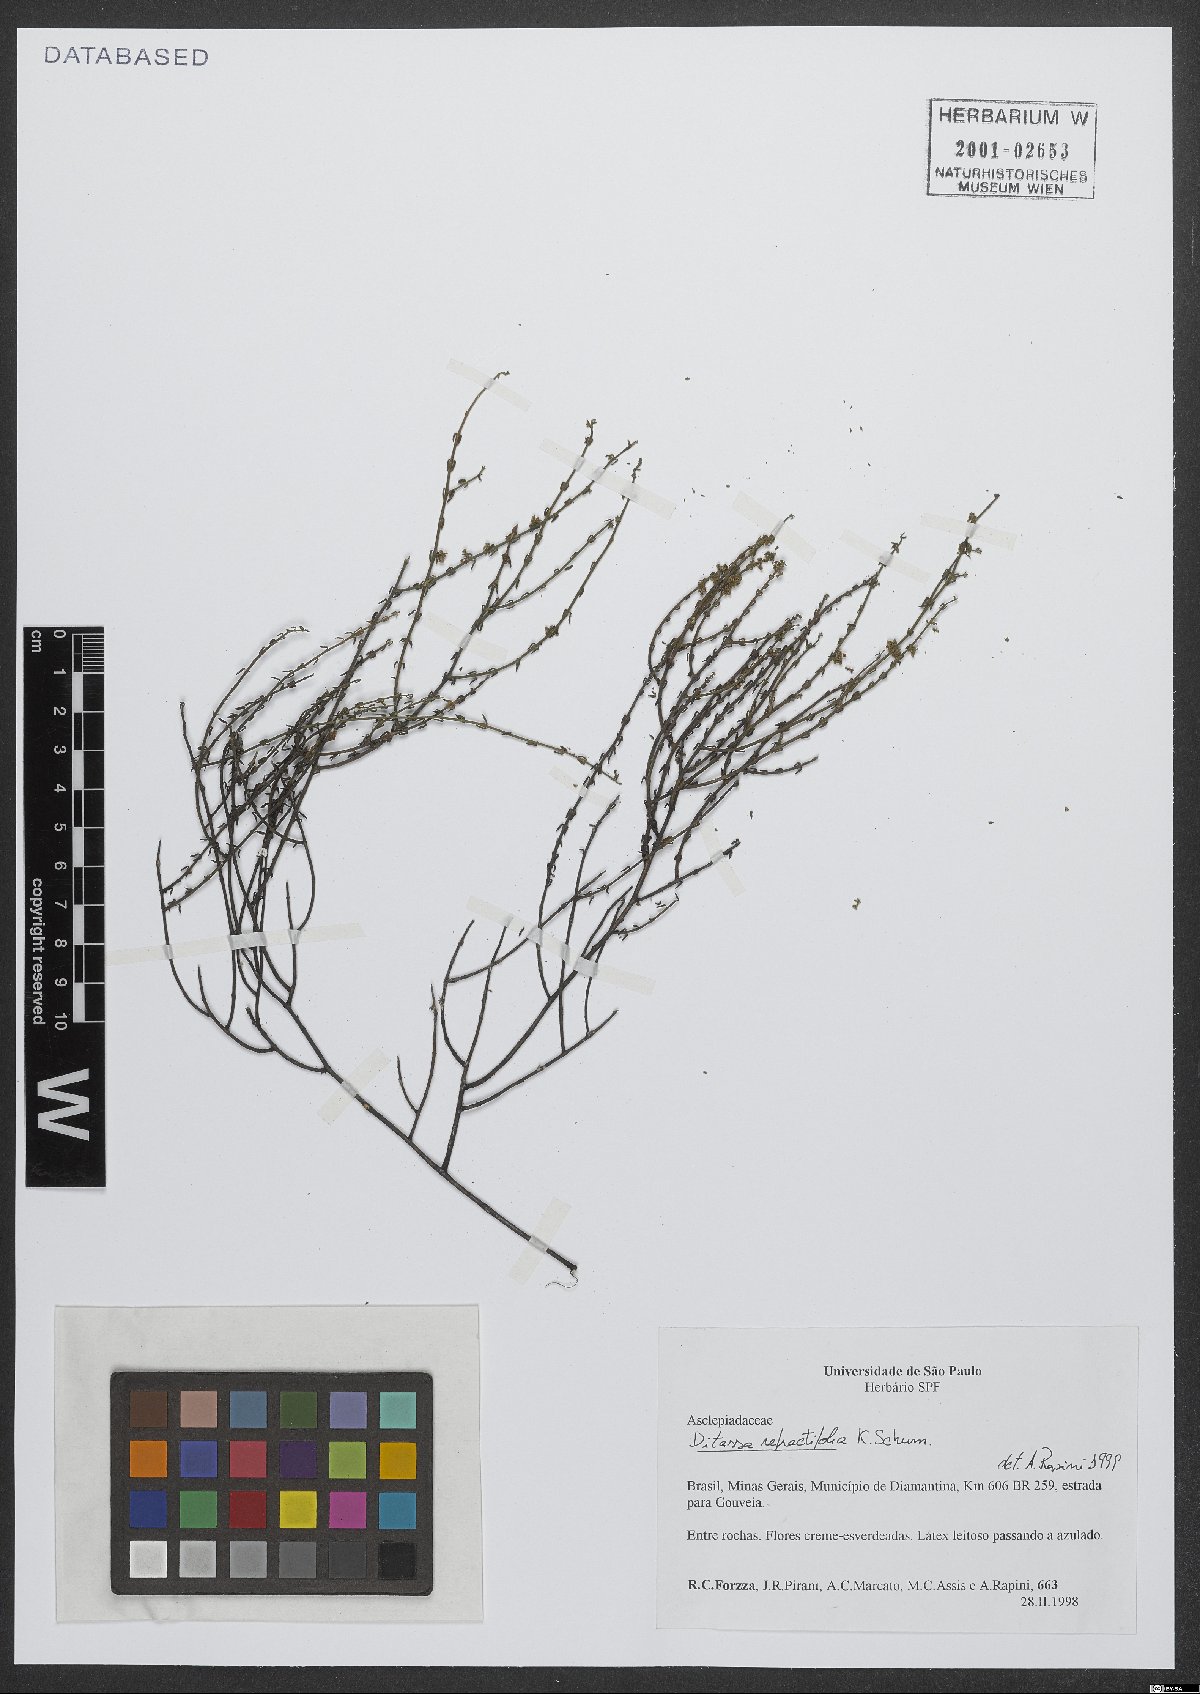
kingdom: Plantae
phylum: Tracheophyta
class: Magnoliopsida
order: Gentianales
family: Apocynaceae
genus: Minaria
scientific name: Minaria refractifolia
